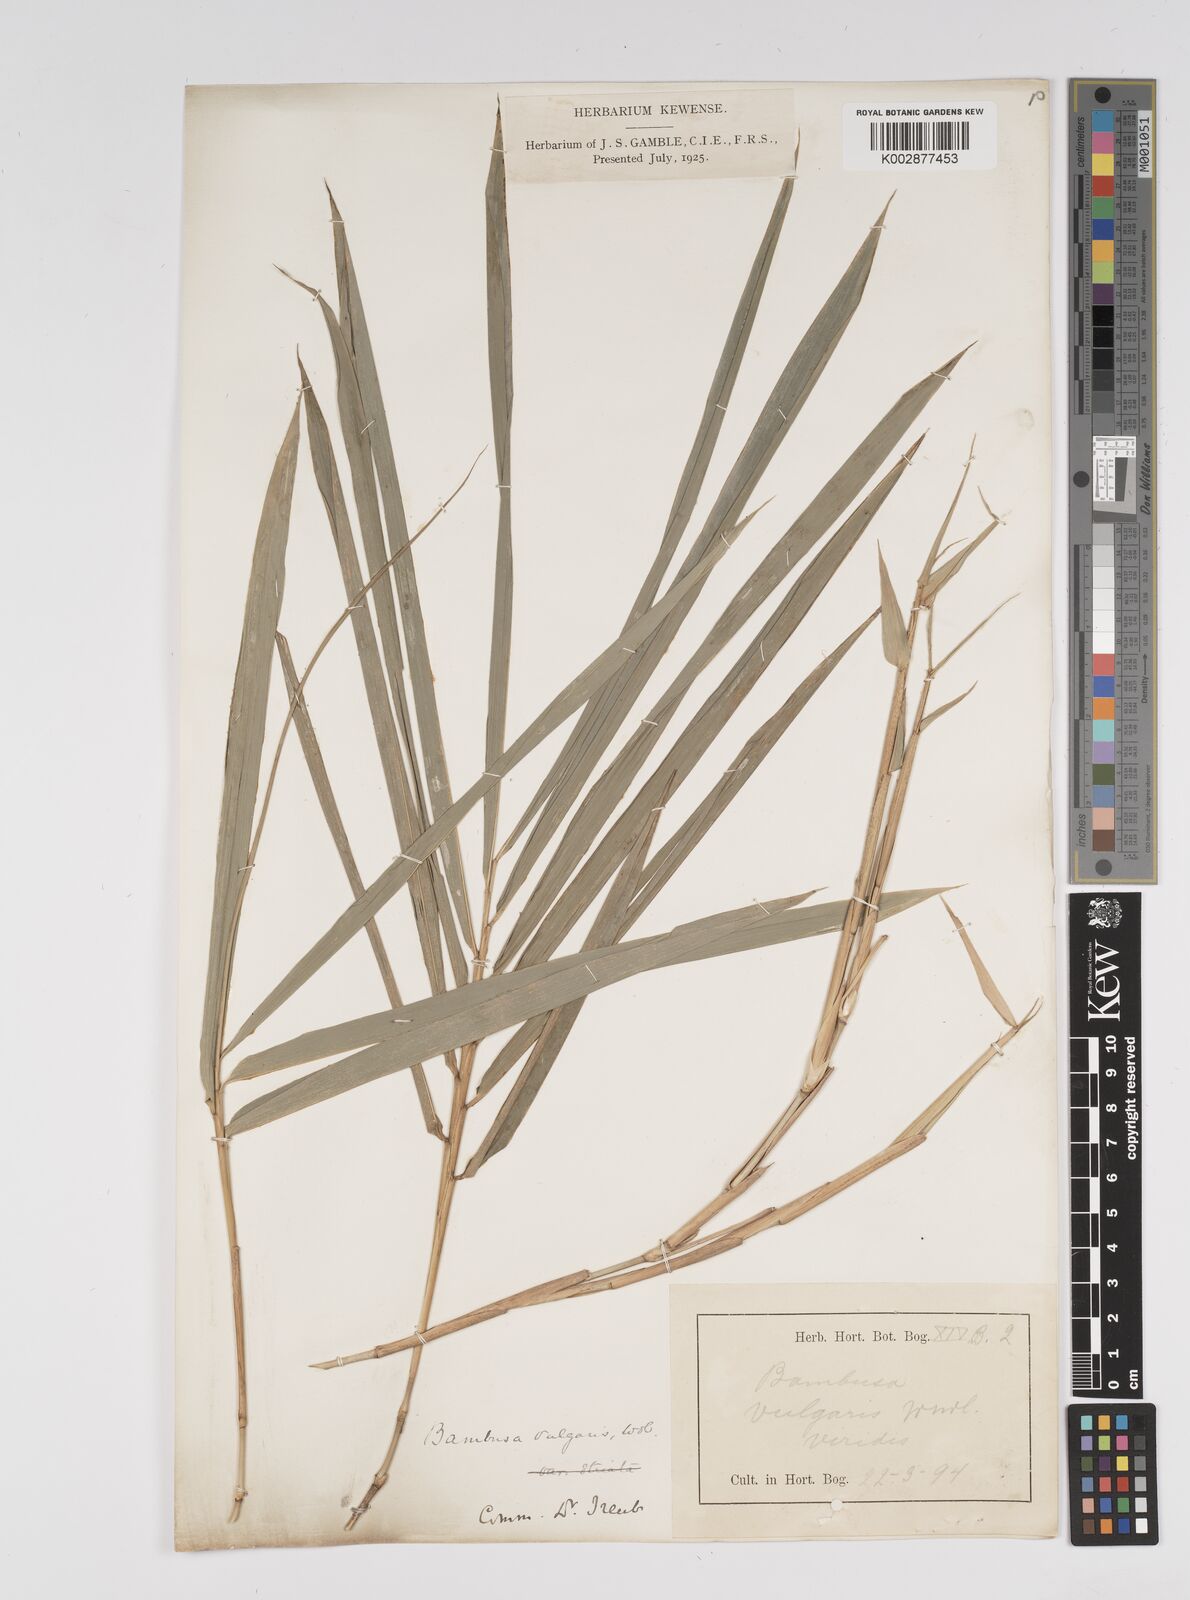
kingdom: Plantae
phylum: Tracheophyta
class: Liliopsida
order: Poales
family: Poaceae
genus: Bambusa
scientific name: Bambusa vulgaris
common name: Common bamboo
